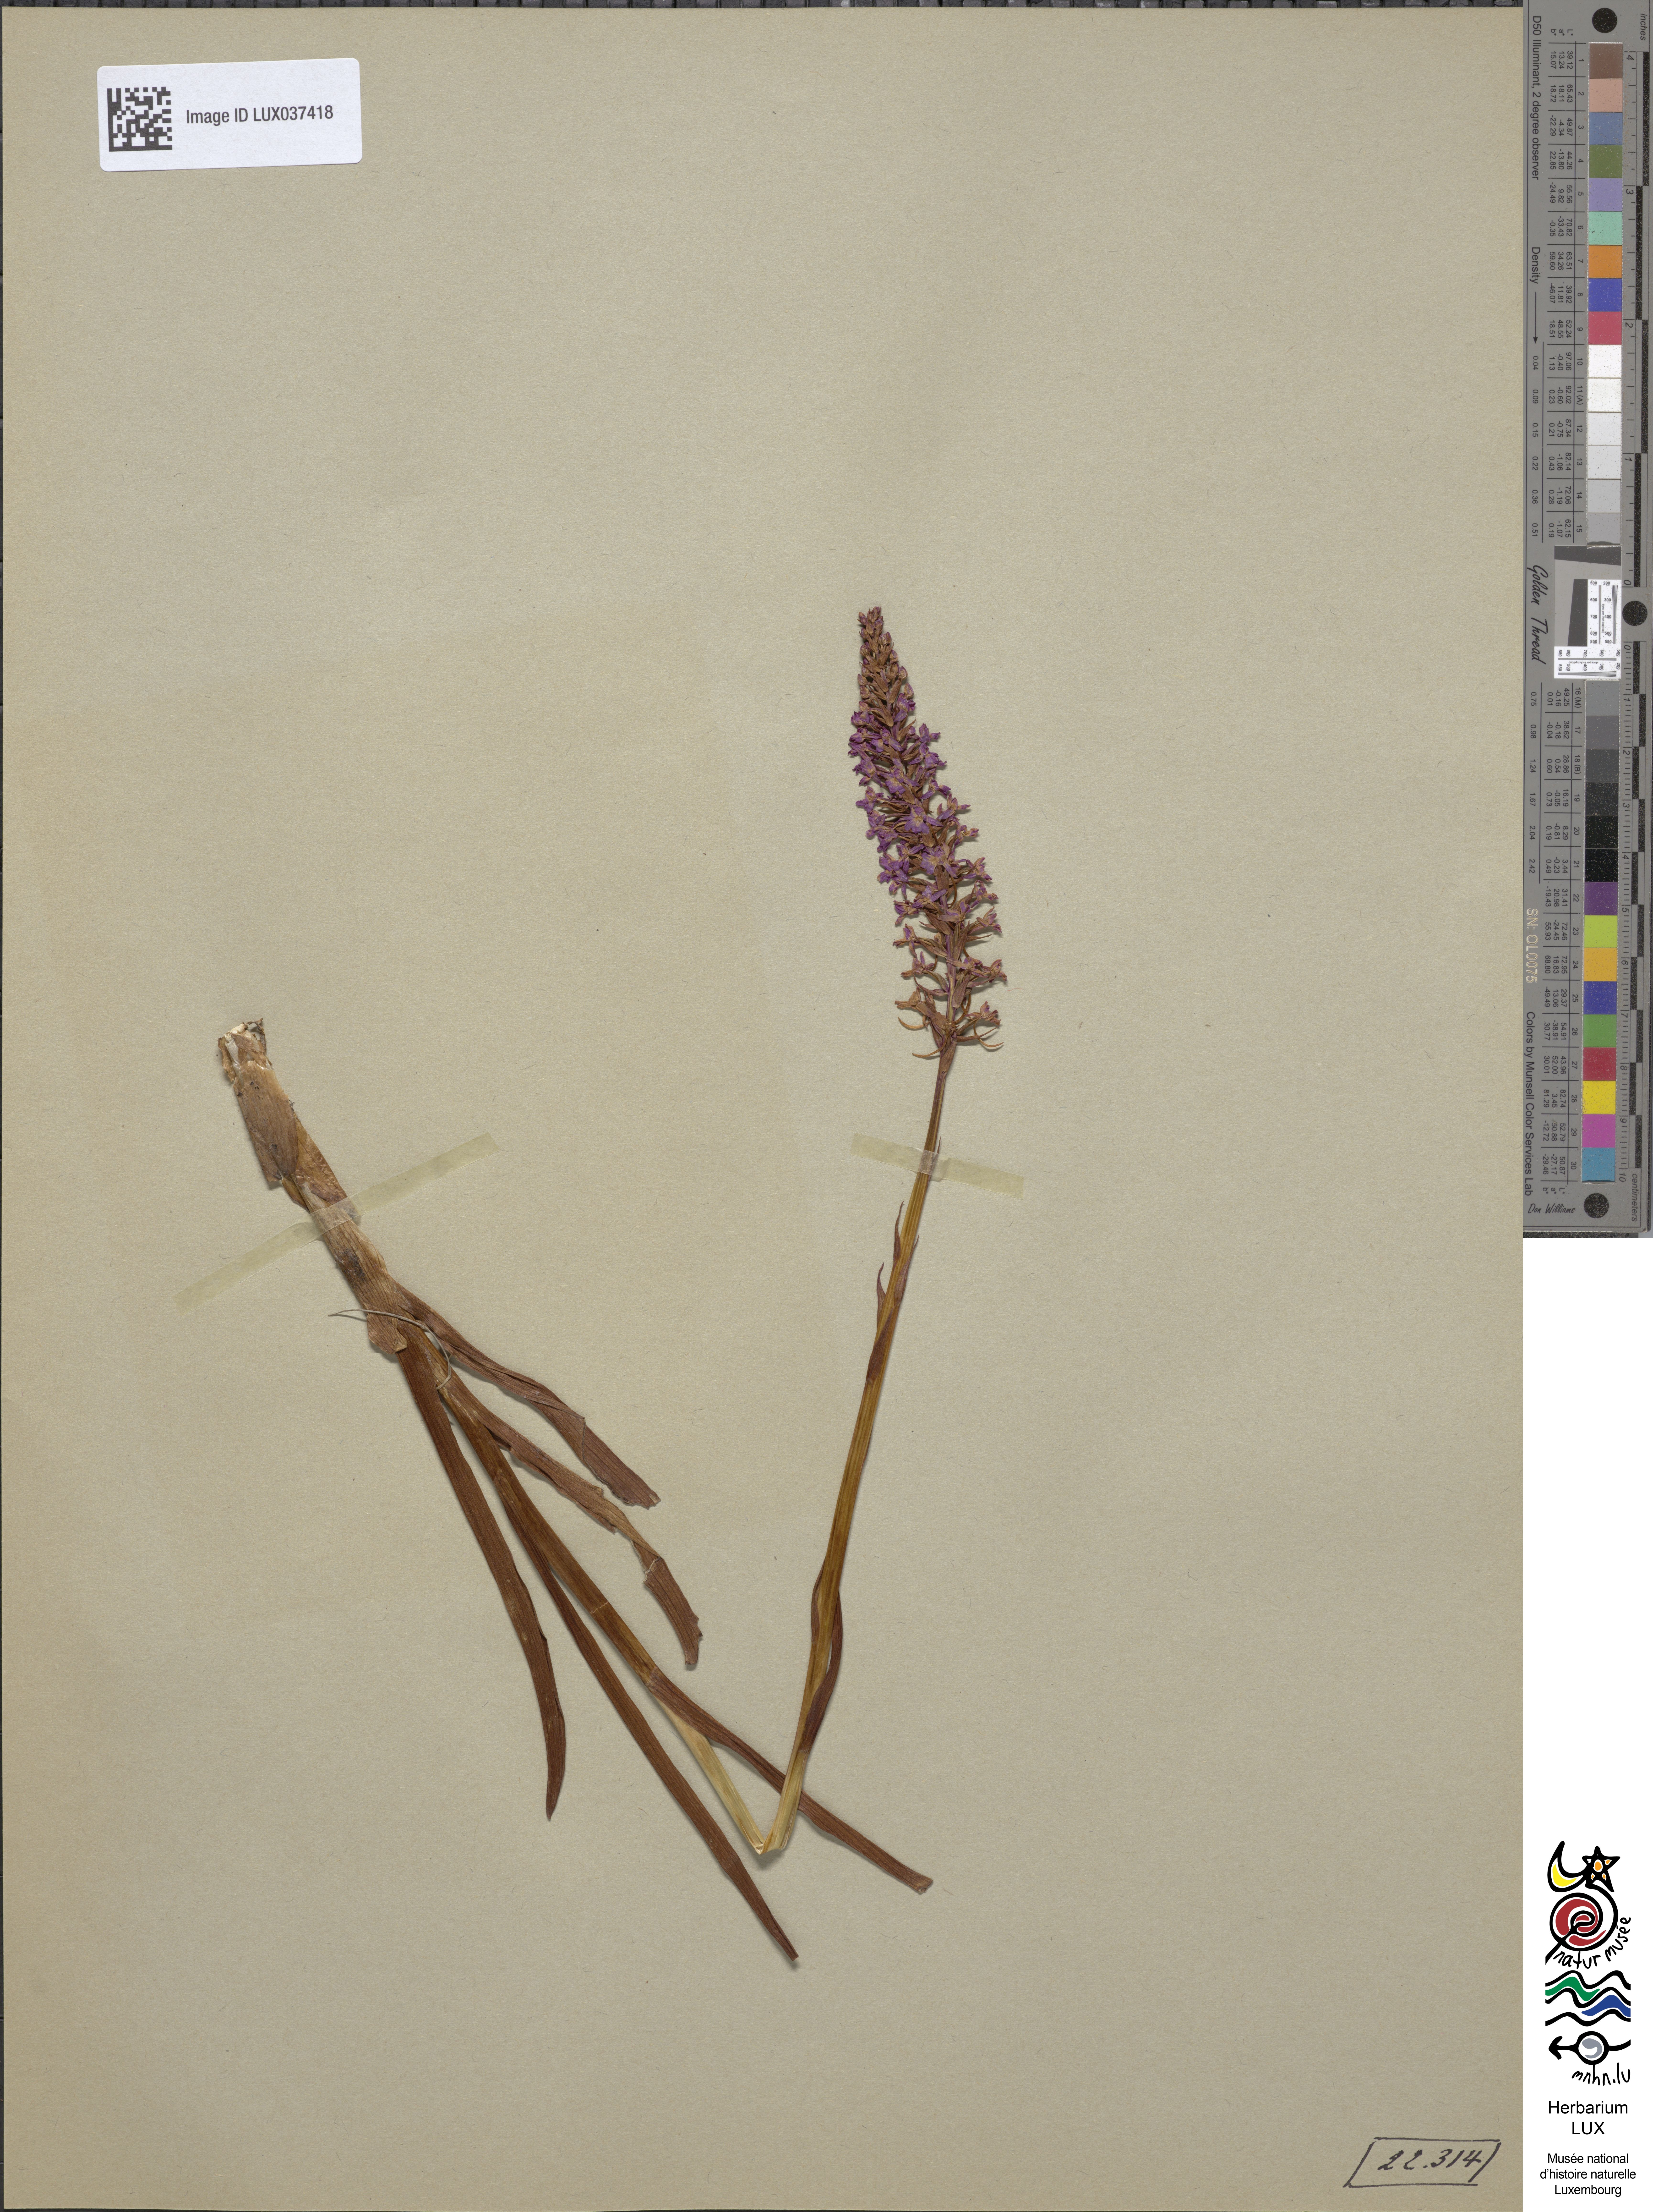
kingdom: Plantae
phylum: Tracheophyta
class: Liliopsida
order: Asparagales
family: Orchidaceae
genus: Gymnadenia
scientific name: Gymnadenia intermedia
